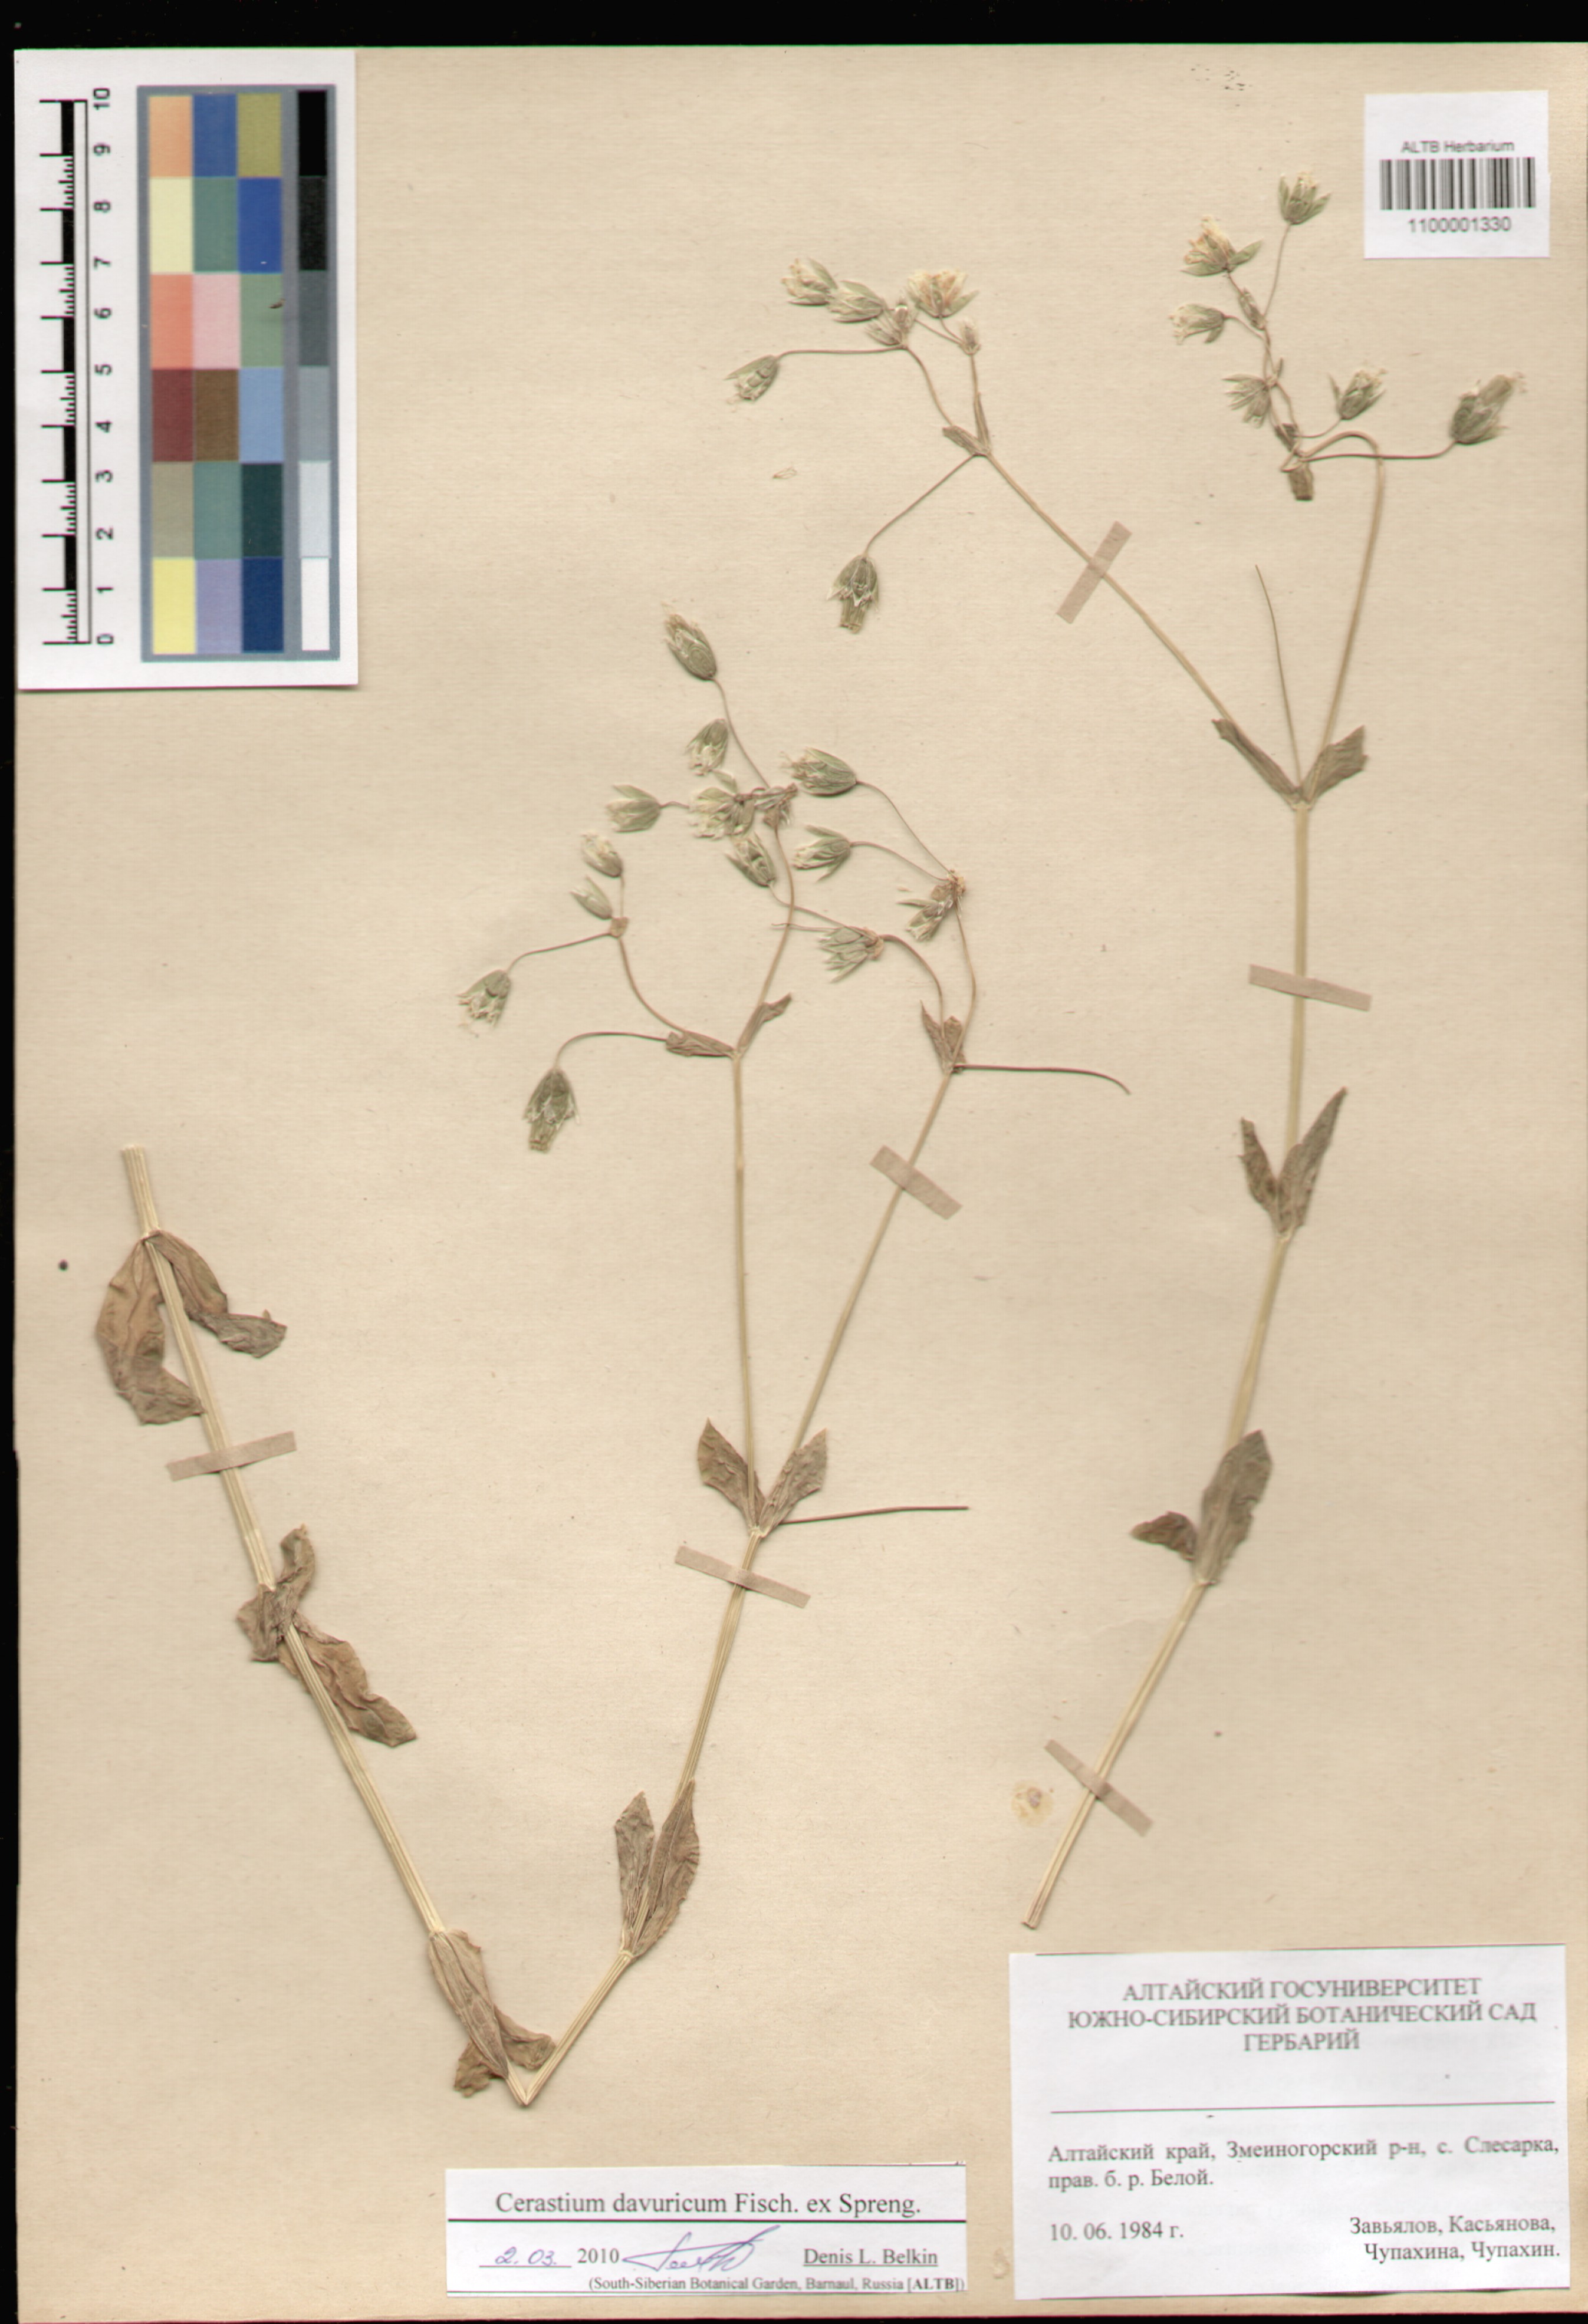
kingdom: Plantae
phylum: Tracheophyta
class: Magnoliopsida
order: Caryophyllales
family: Caryophyllaceae
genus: Dichodon
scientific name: Dichodon davuricum
